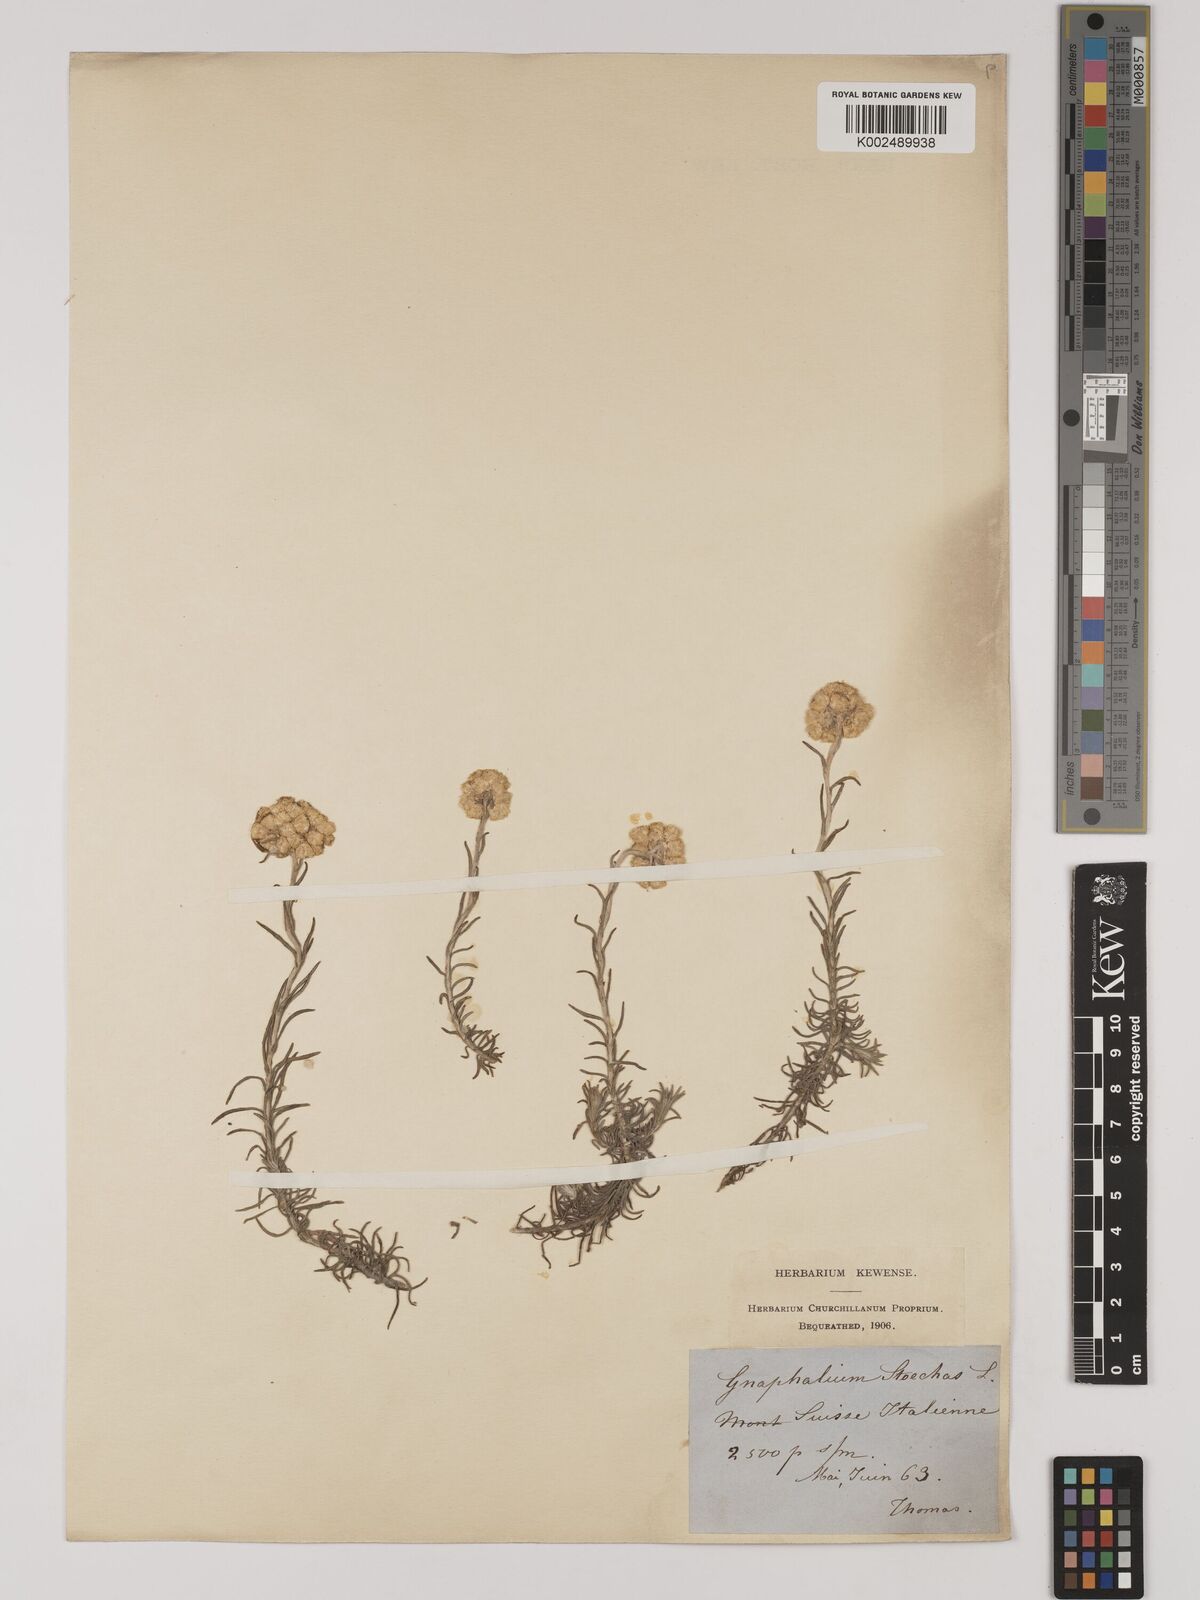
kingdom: Plantae
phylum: Tracheophyta
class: Magnoliopsida
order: Asterales
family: Asteraceae
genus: Helichrysum
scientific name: Helichrysum
